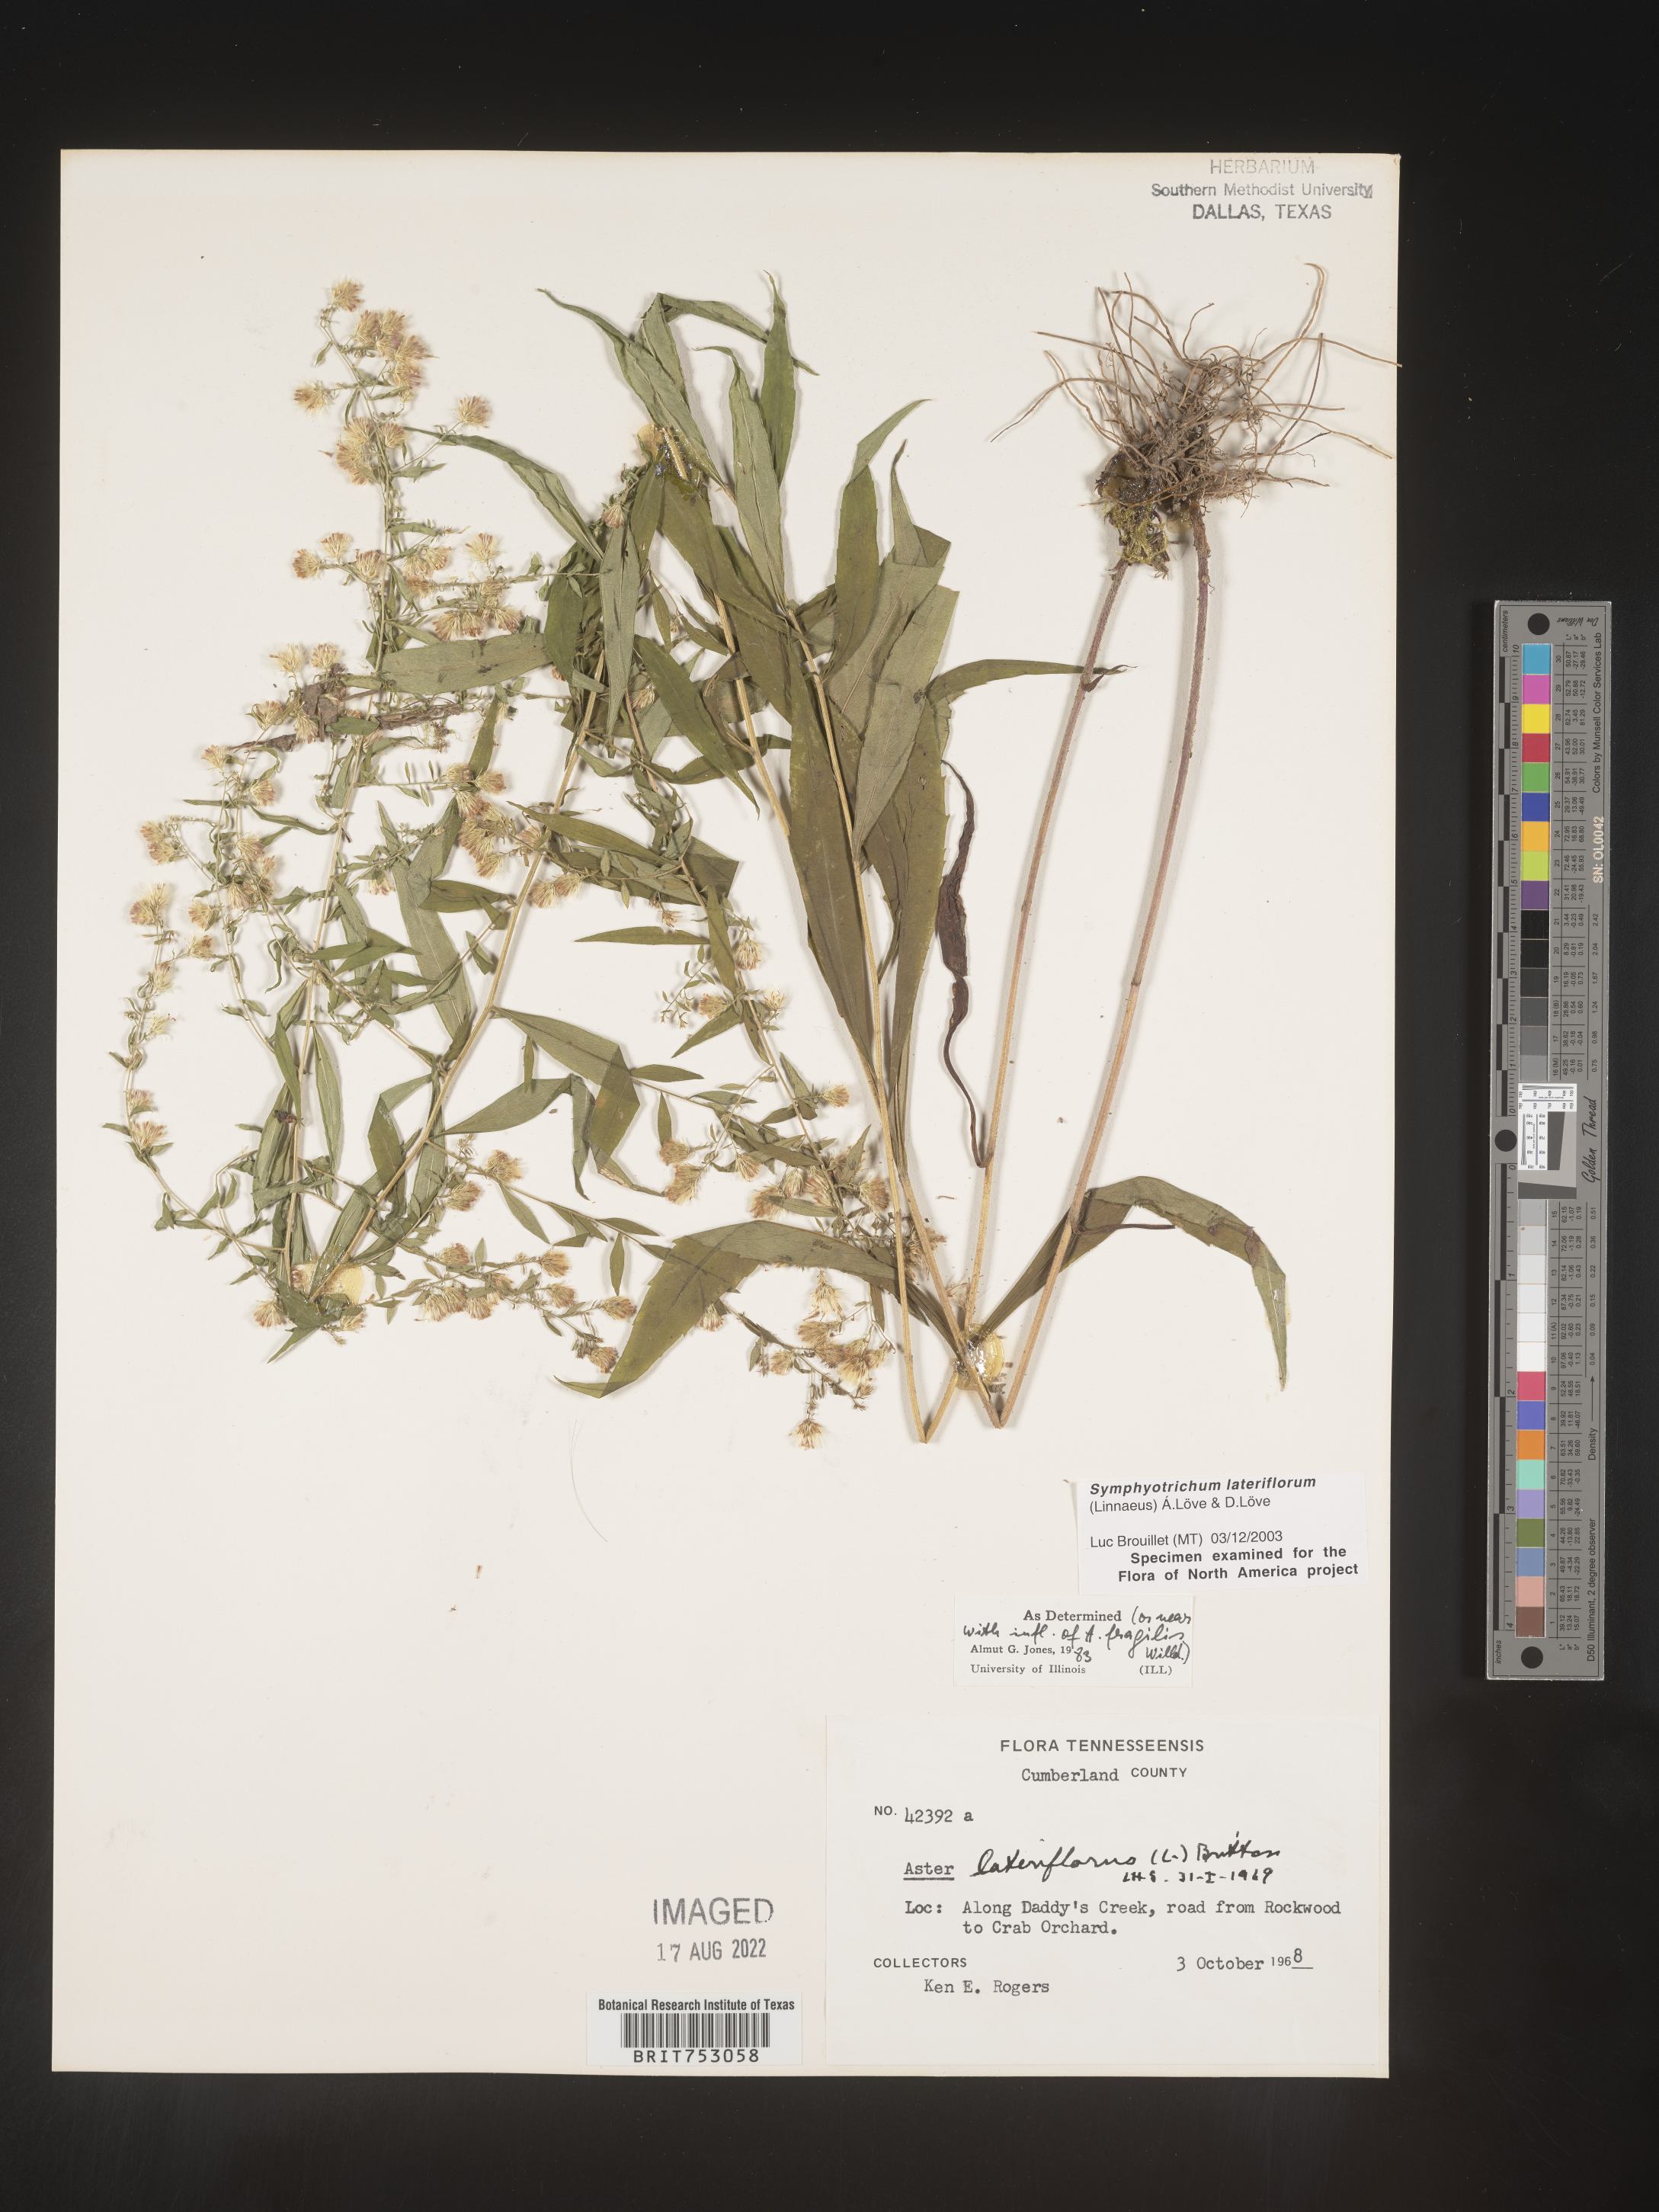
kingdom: Plantae
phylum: Tracheophyta
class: Magnoliopsida
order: Asterales
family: Asteraceae
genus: Symphyotrichum
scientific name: Symphyotrichum lateriflorum
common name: Calico aster
